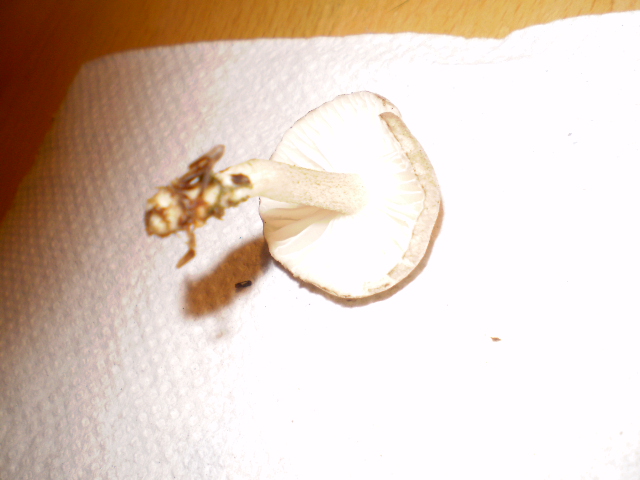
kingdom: Fungi
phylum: Basidiomycota
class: Agaricomycetes
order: Agaricales
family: Hygrophoraceae
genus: Hygrophorus
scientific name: Hygrophorus pustulatus
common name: mørkprikket sneglehat
